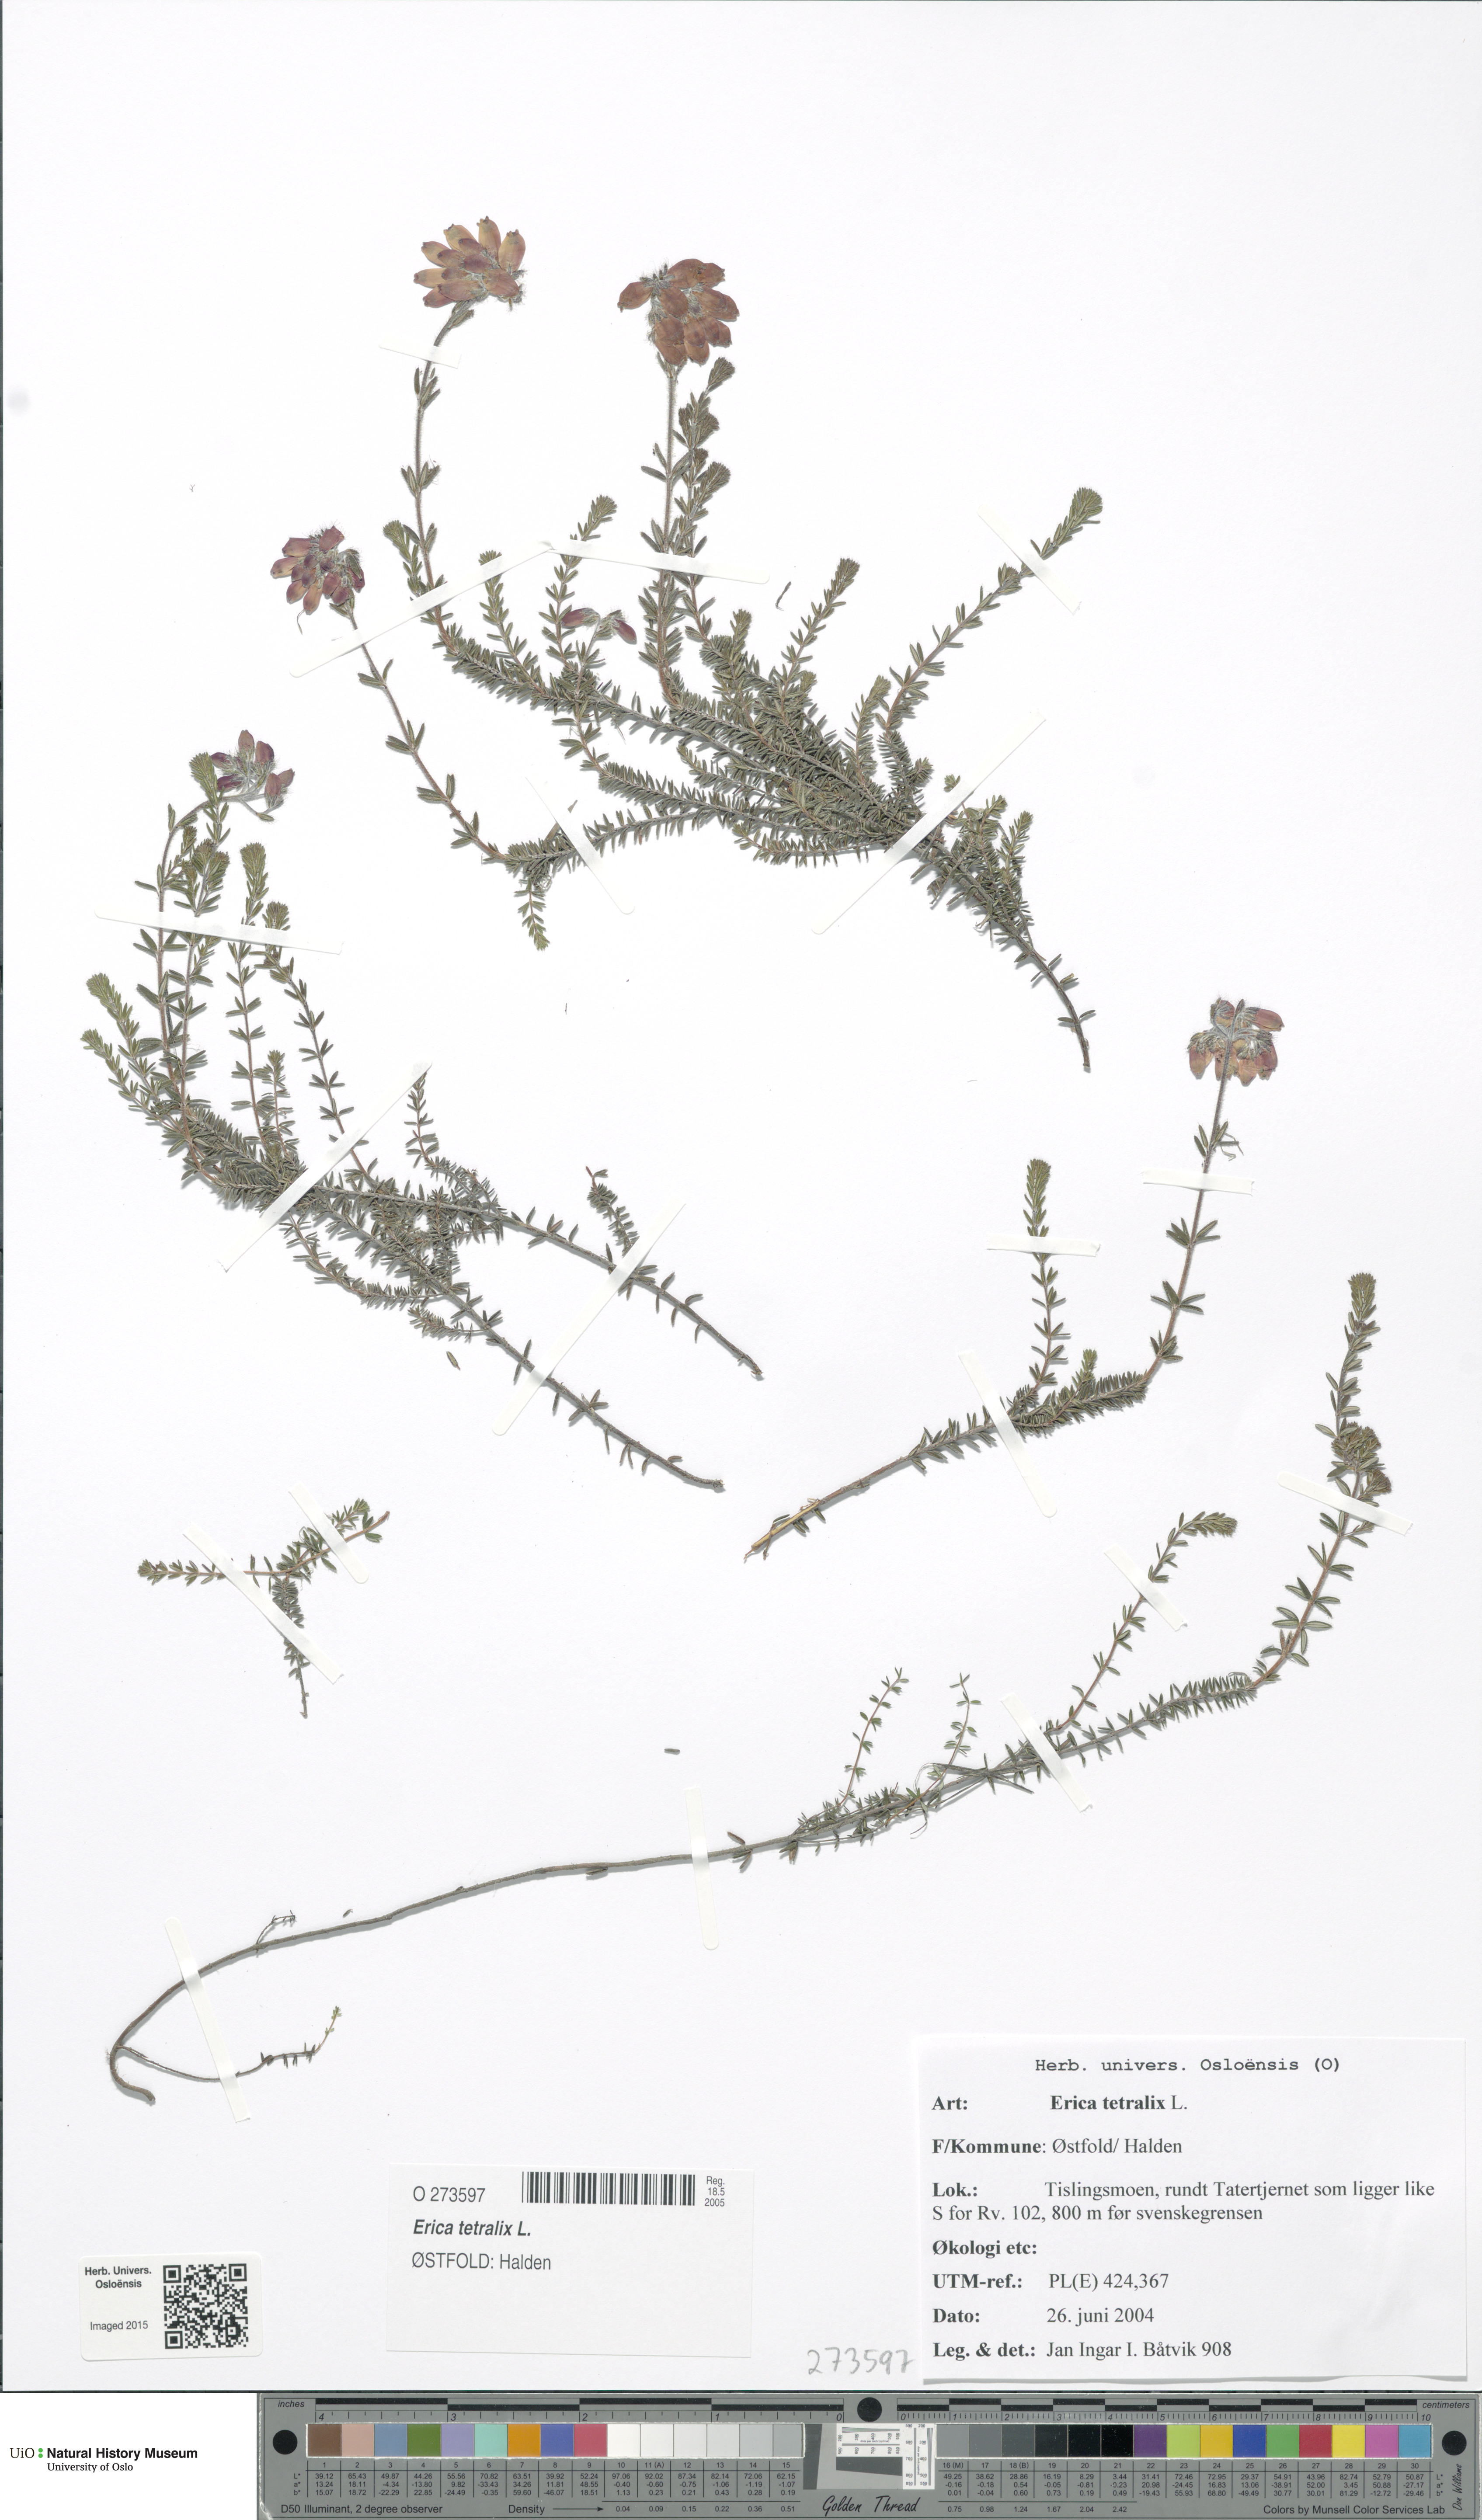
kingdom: Plantae
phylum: Tracheophyta
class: Magnoliopsida
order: Ericales
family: Ericaceae
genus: Erica
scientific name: Erica tetralix
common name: Cross-leaved heath
